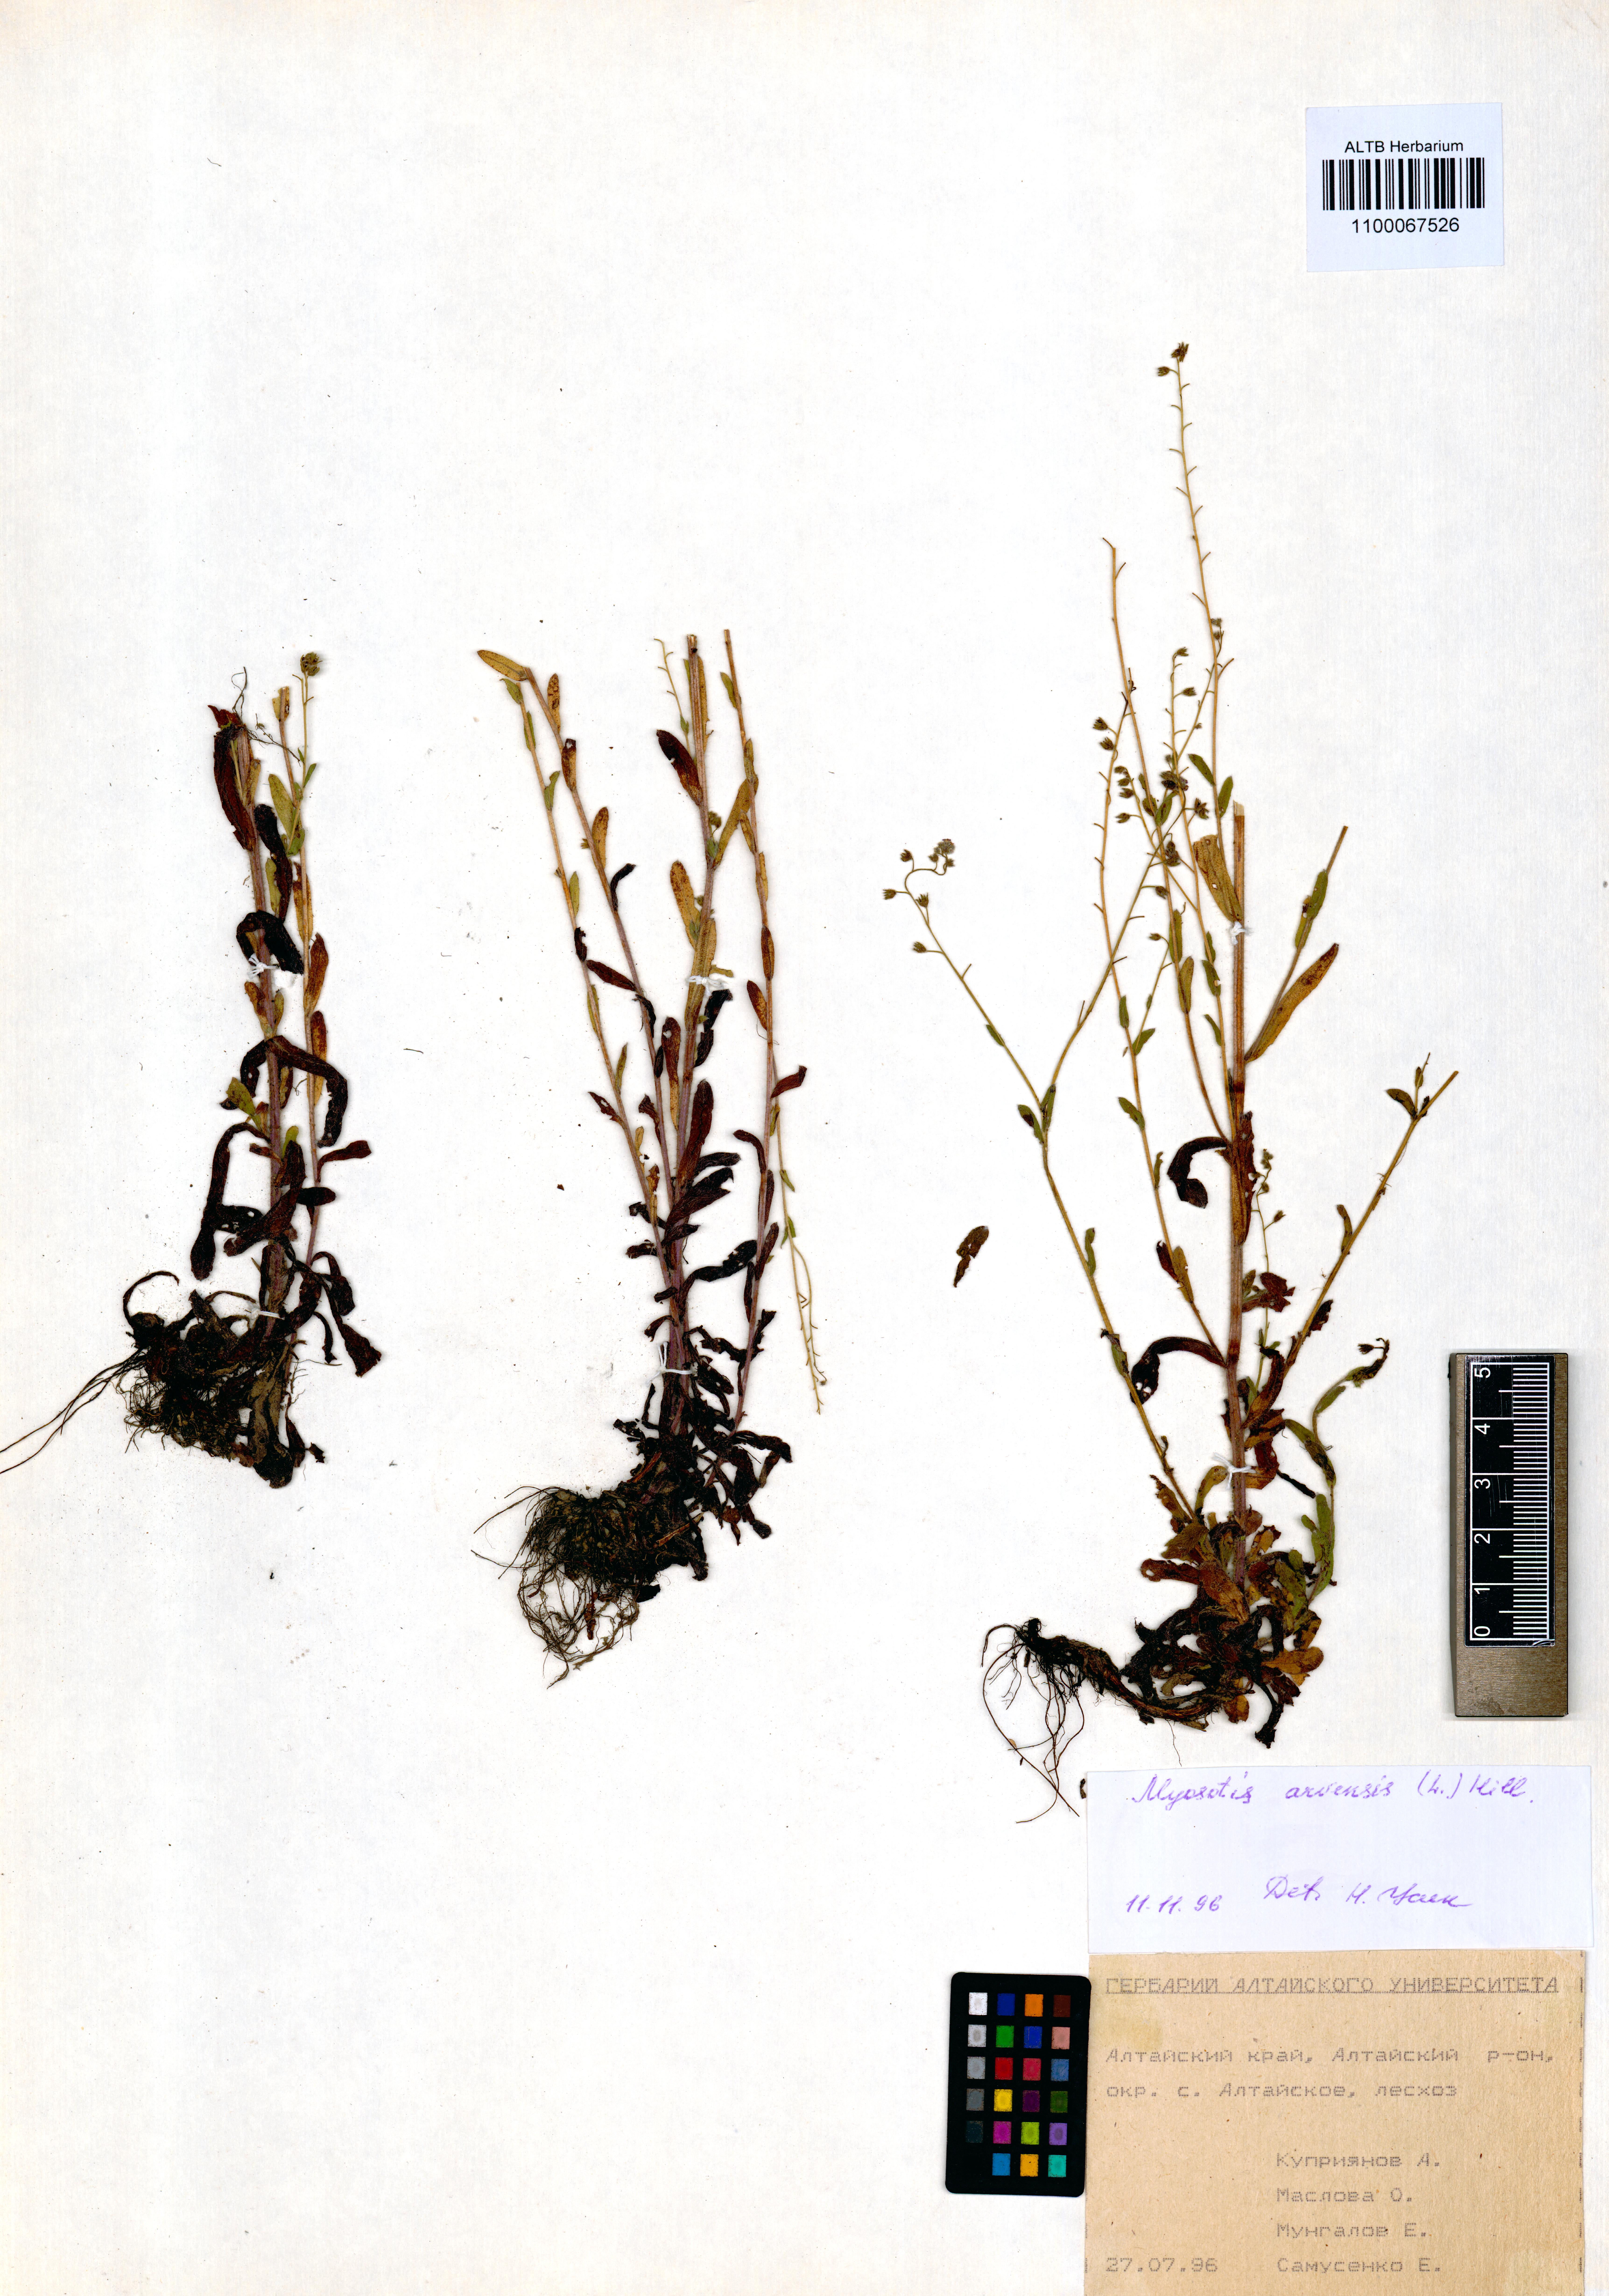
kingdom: Plantae
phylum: Tracheophyta
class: Magnoliopsida
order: Boraginales
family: Boraginaceae
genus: Myosotis
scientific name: Myosotis arvensis
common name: Field forget-me-not
